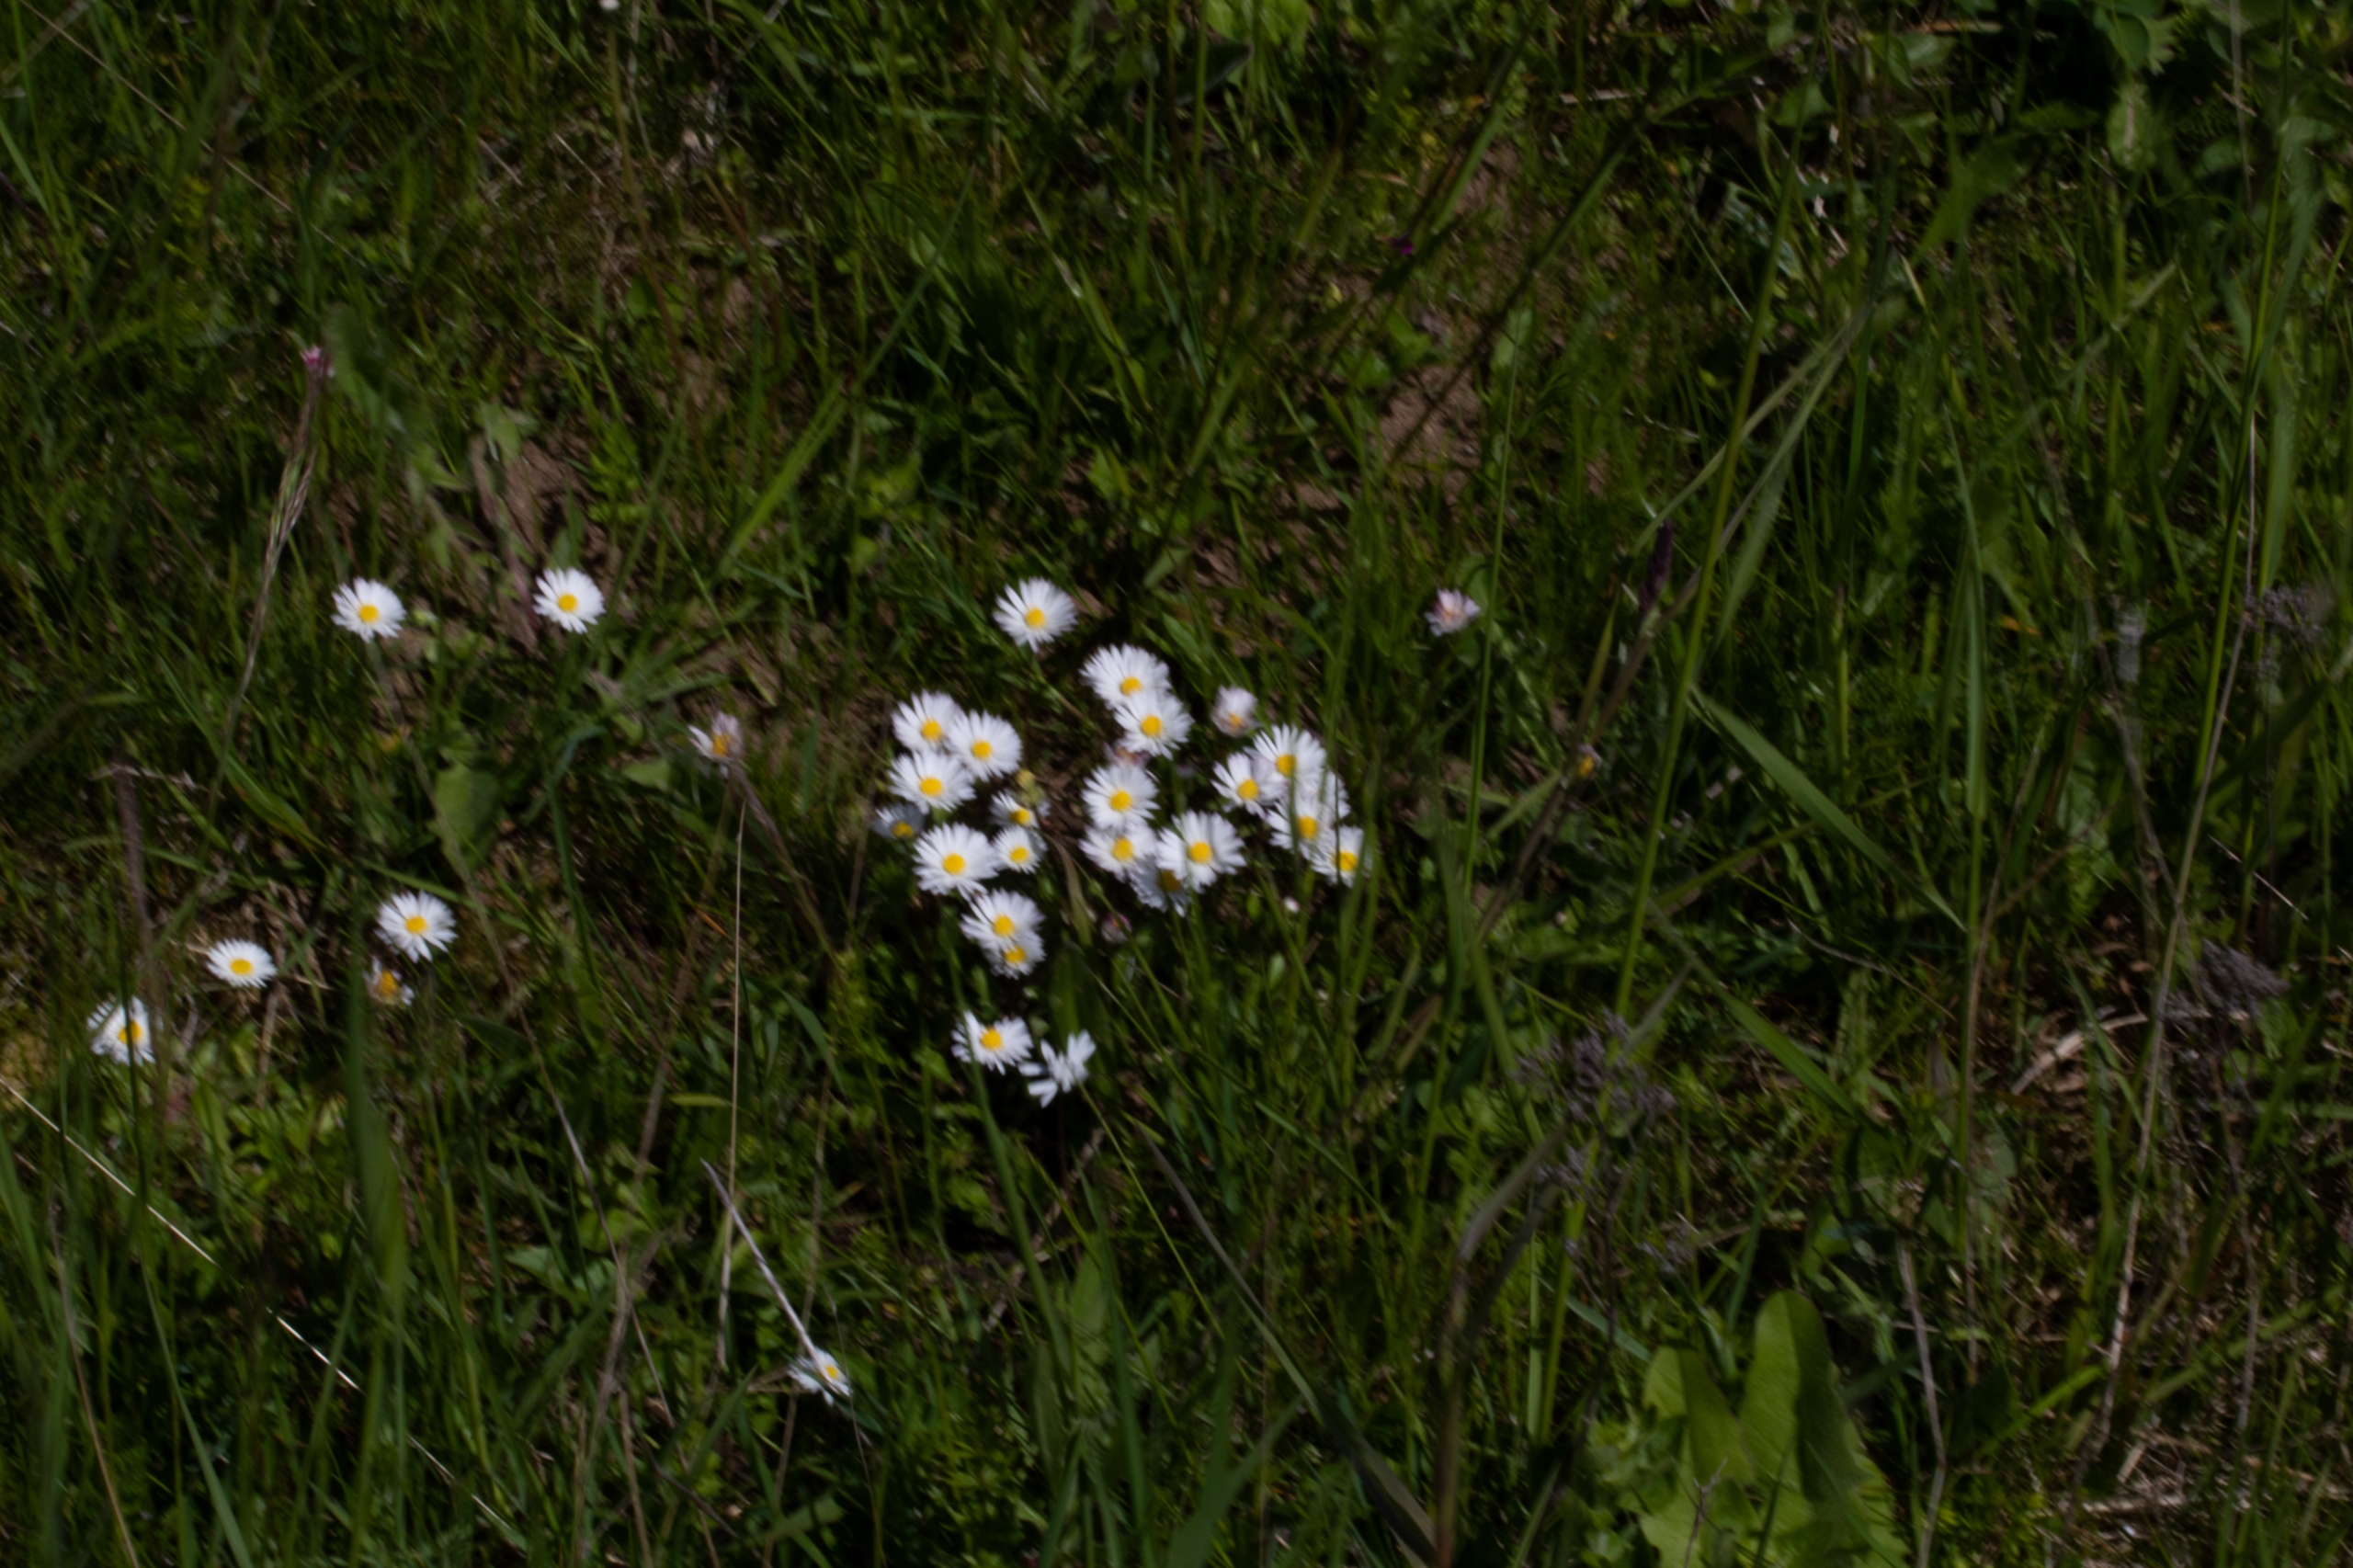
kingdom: Plantae
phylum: Tracheophyta
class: Magnoliopsida
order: Asterales
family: Asteraceae
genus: Bellis
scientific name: Bellis perennis
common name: Tusindfryd
